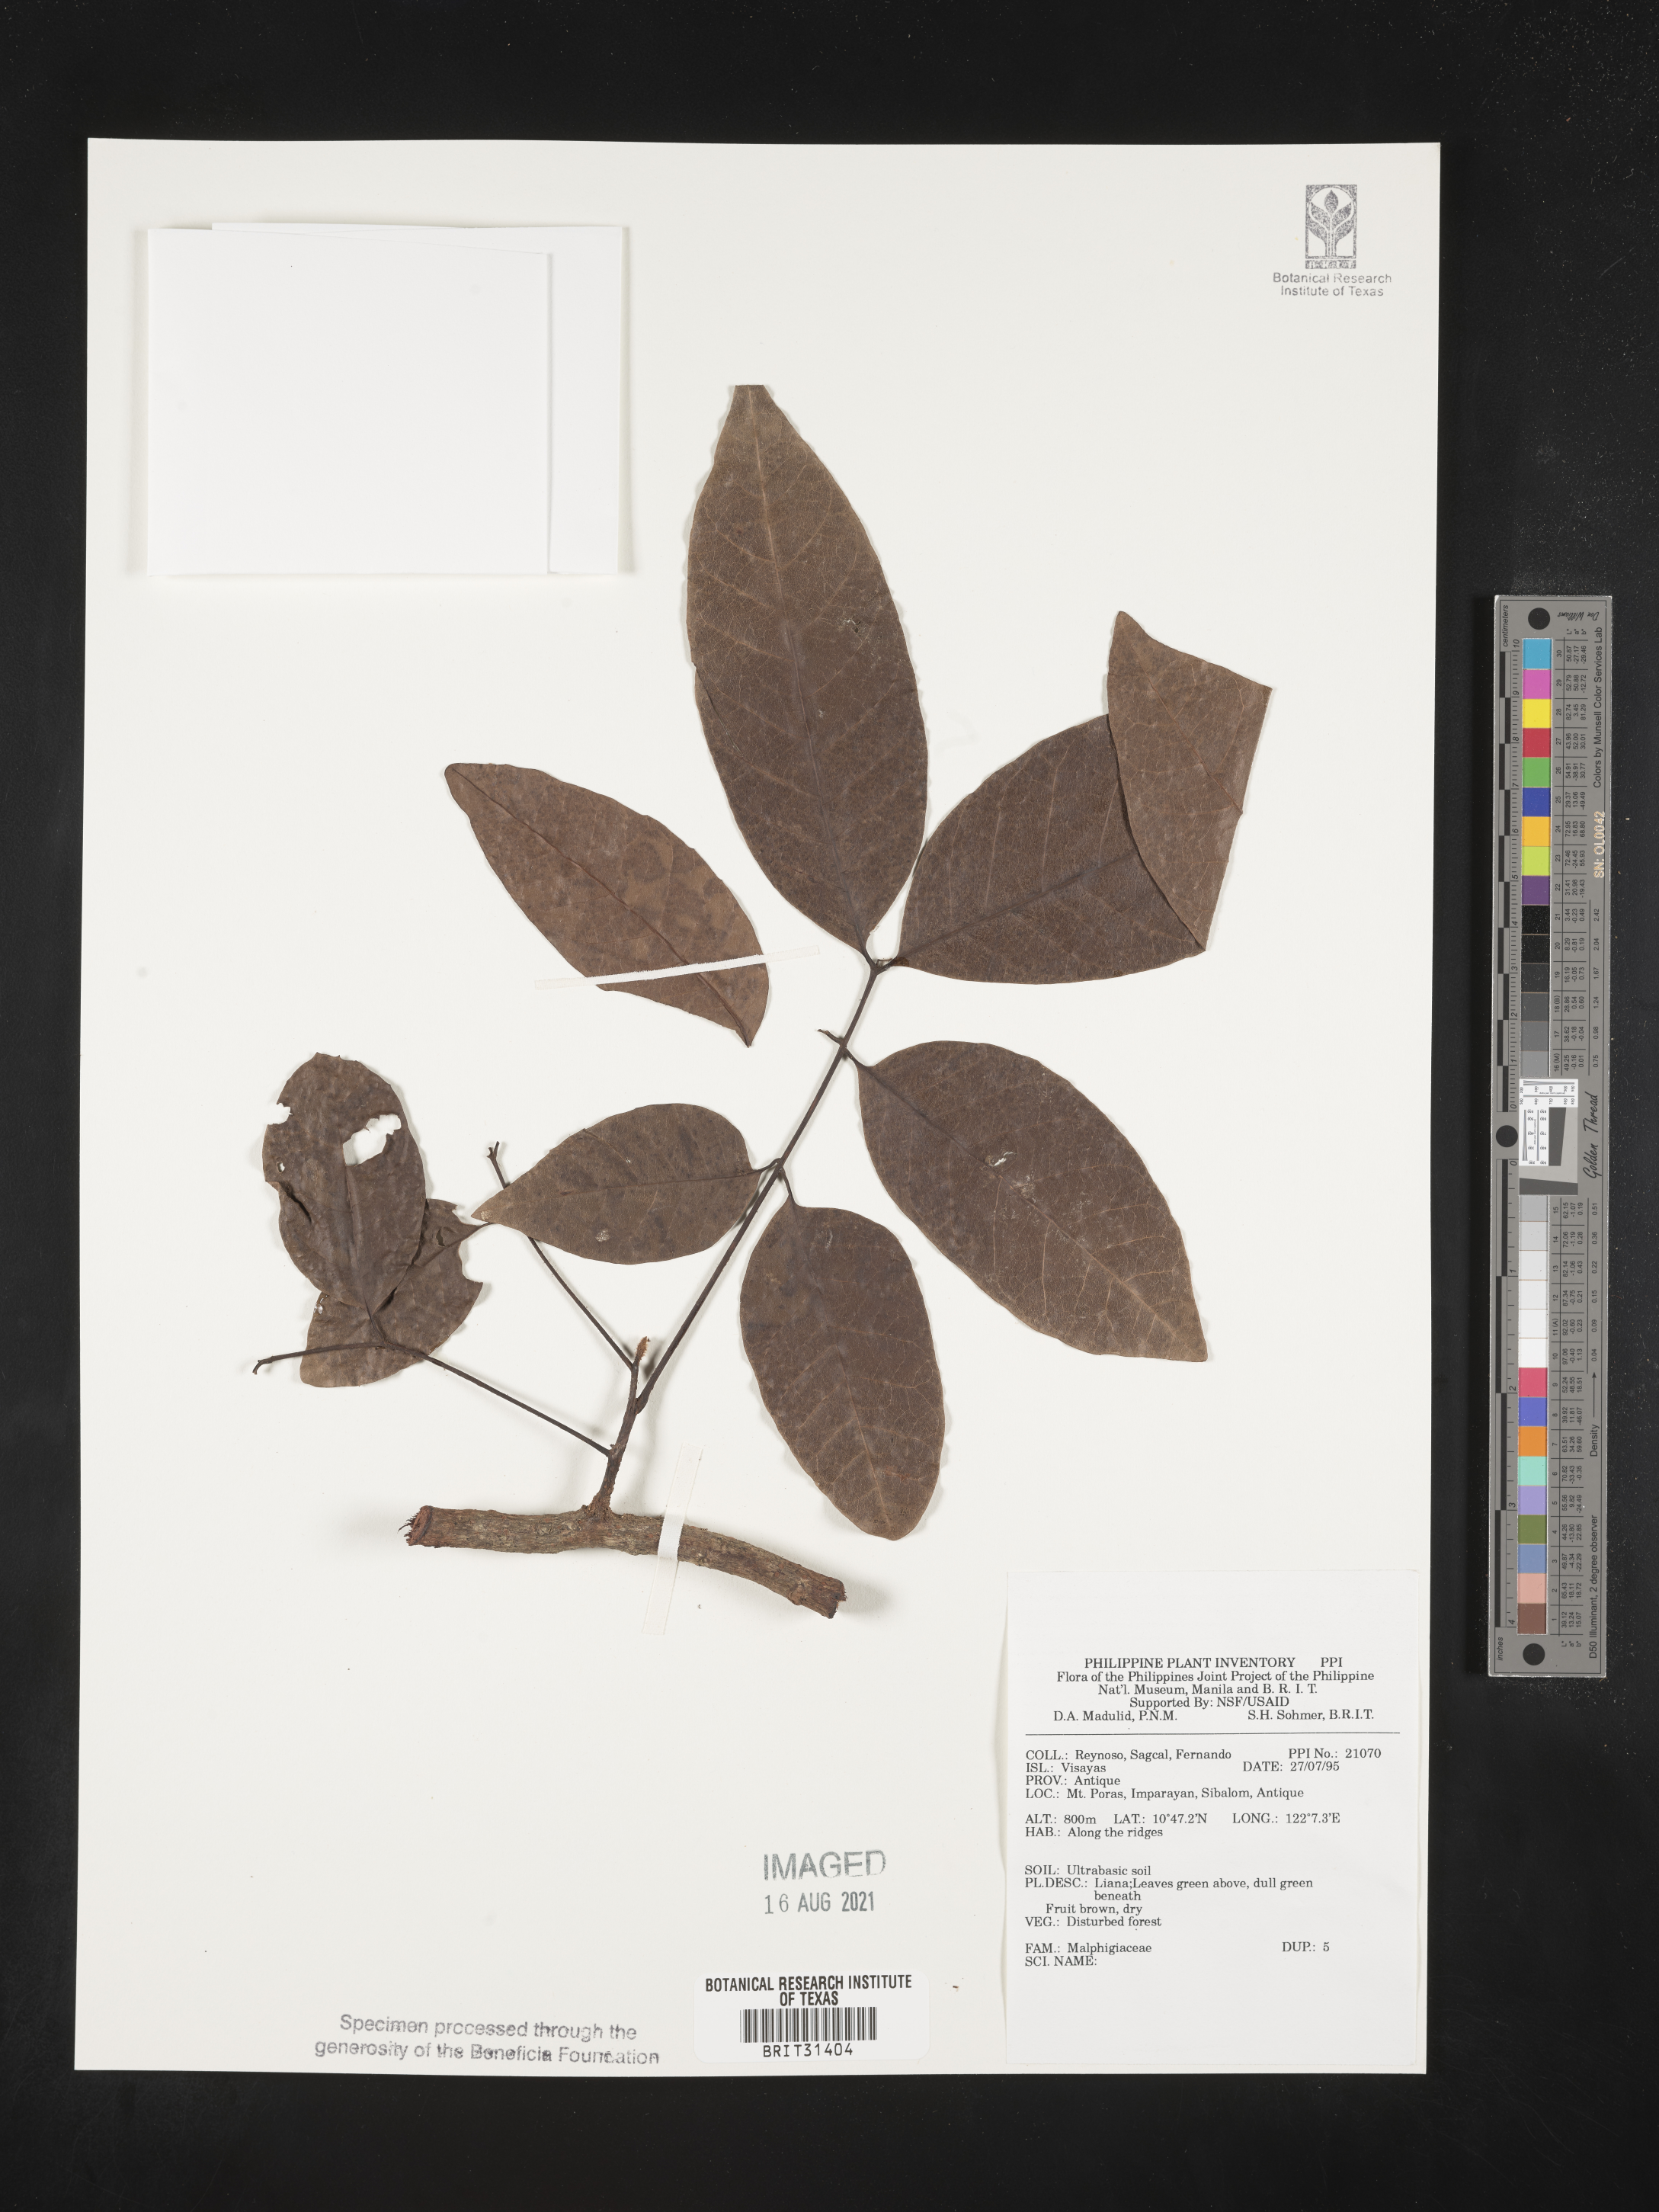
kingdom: Plantae
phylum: Tracheophyta
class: Magnoliopsida
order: Malpighiales
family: Malpighiaceae
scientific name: Malpighiaceae
